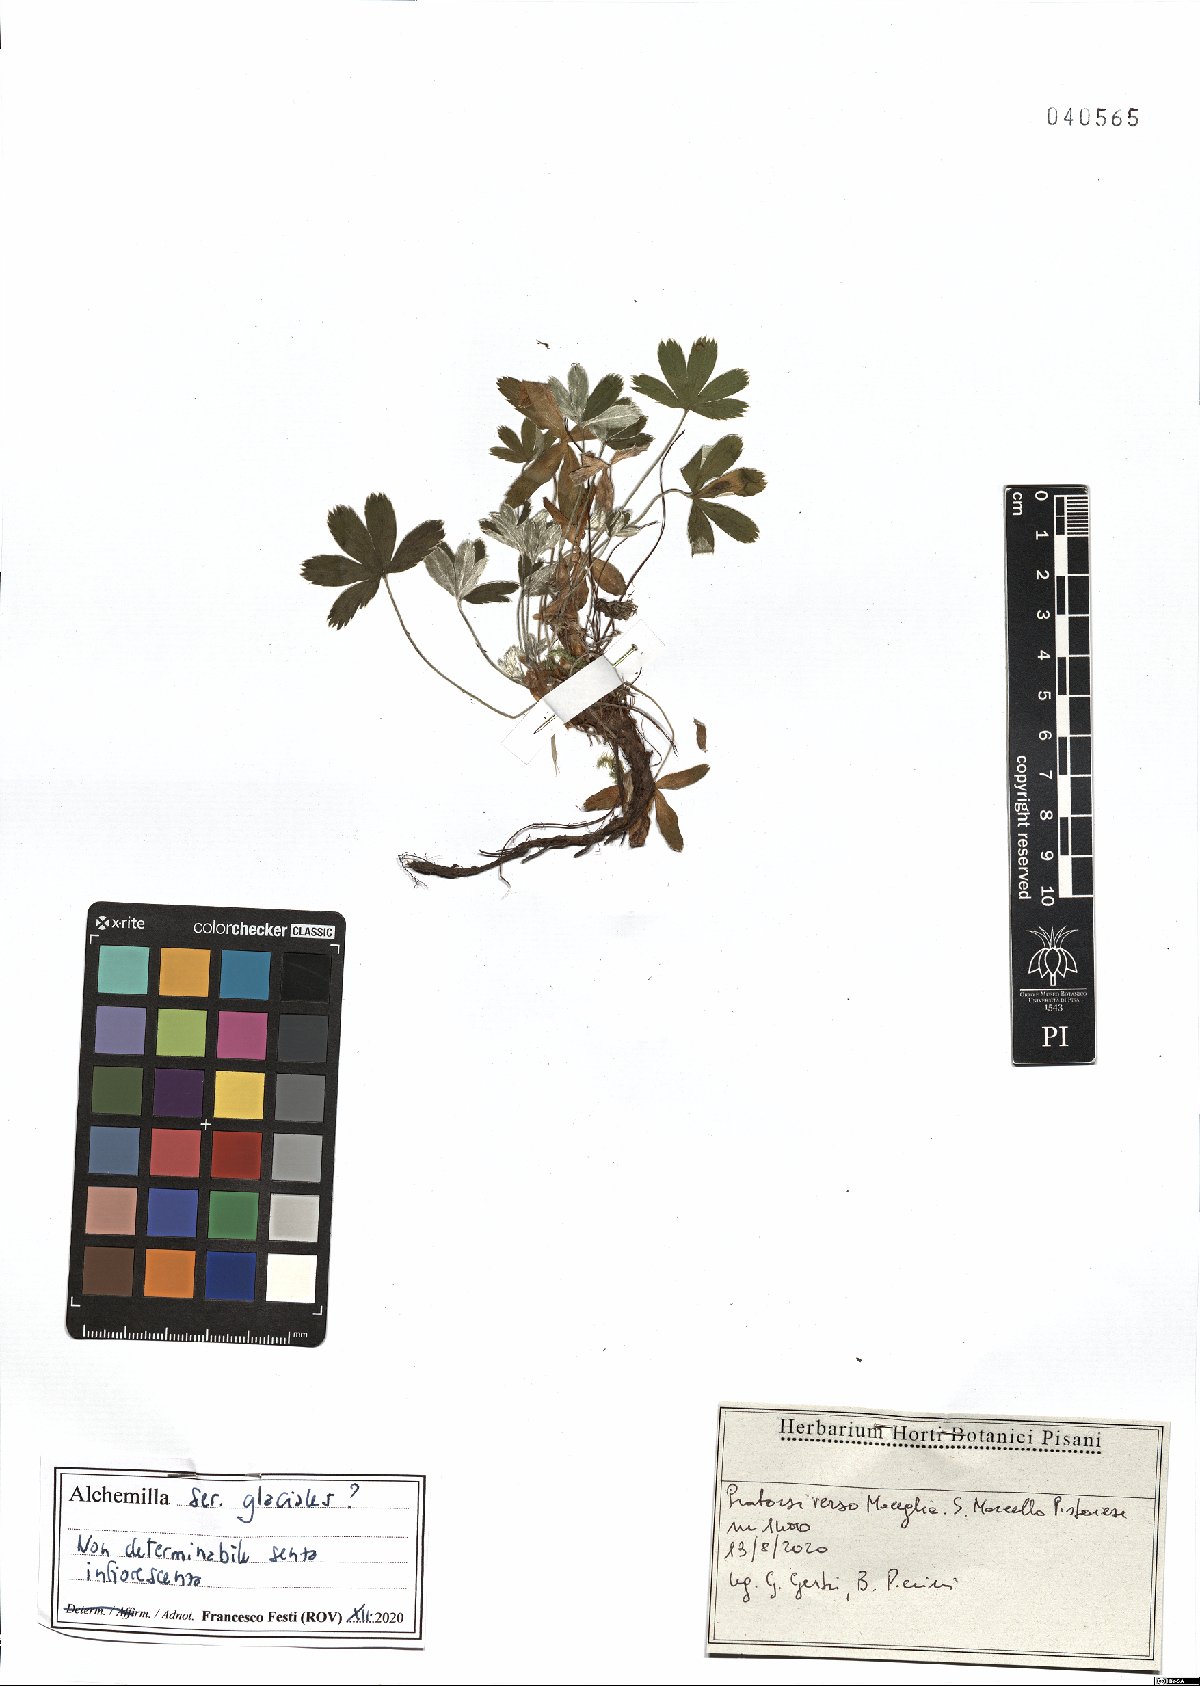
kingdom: Plantae
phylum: Tracheophyta
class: Magnoliopsida
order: Rosales
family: Rosaceae
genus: Alchemilla
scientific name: Alchemilla glacialis
